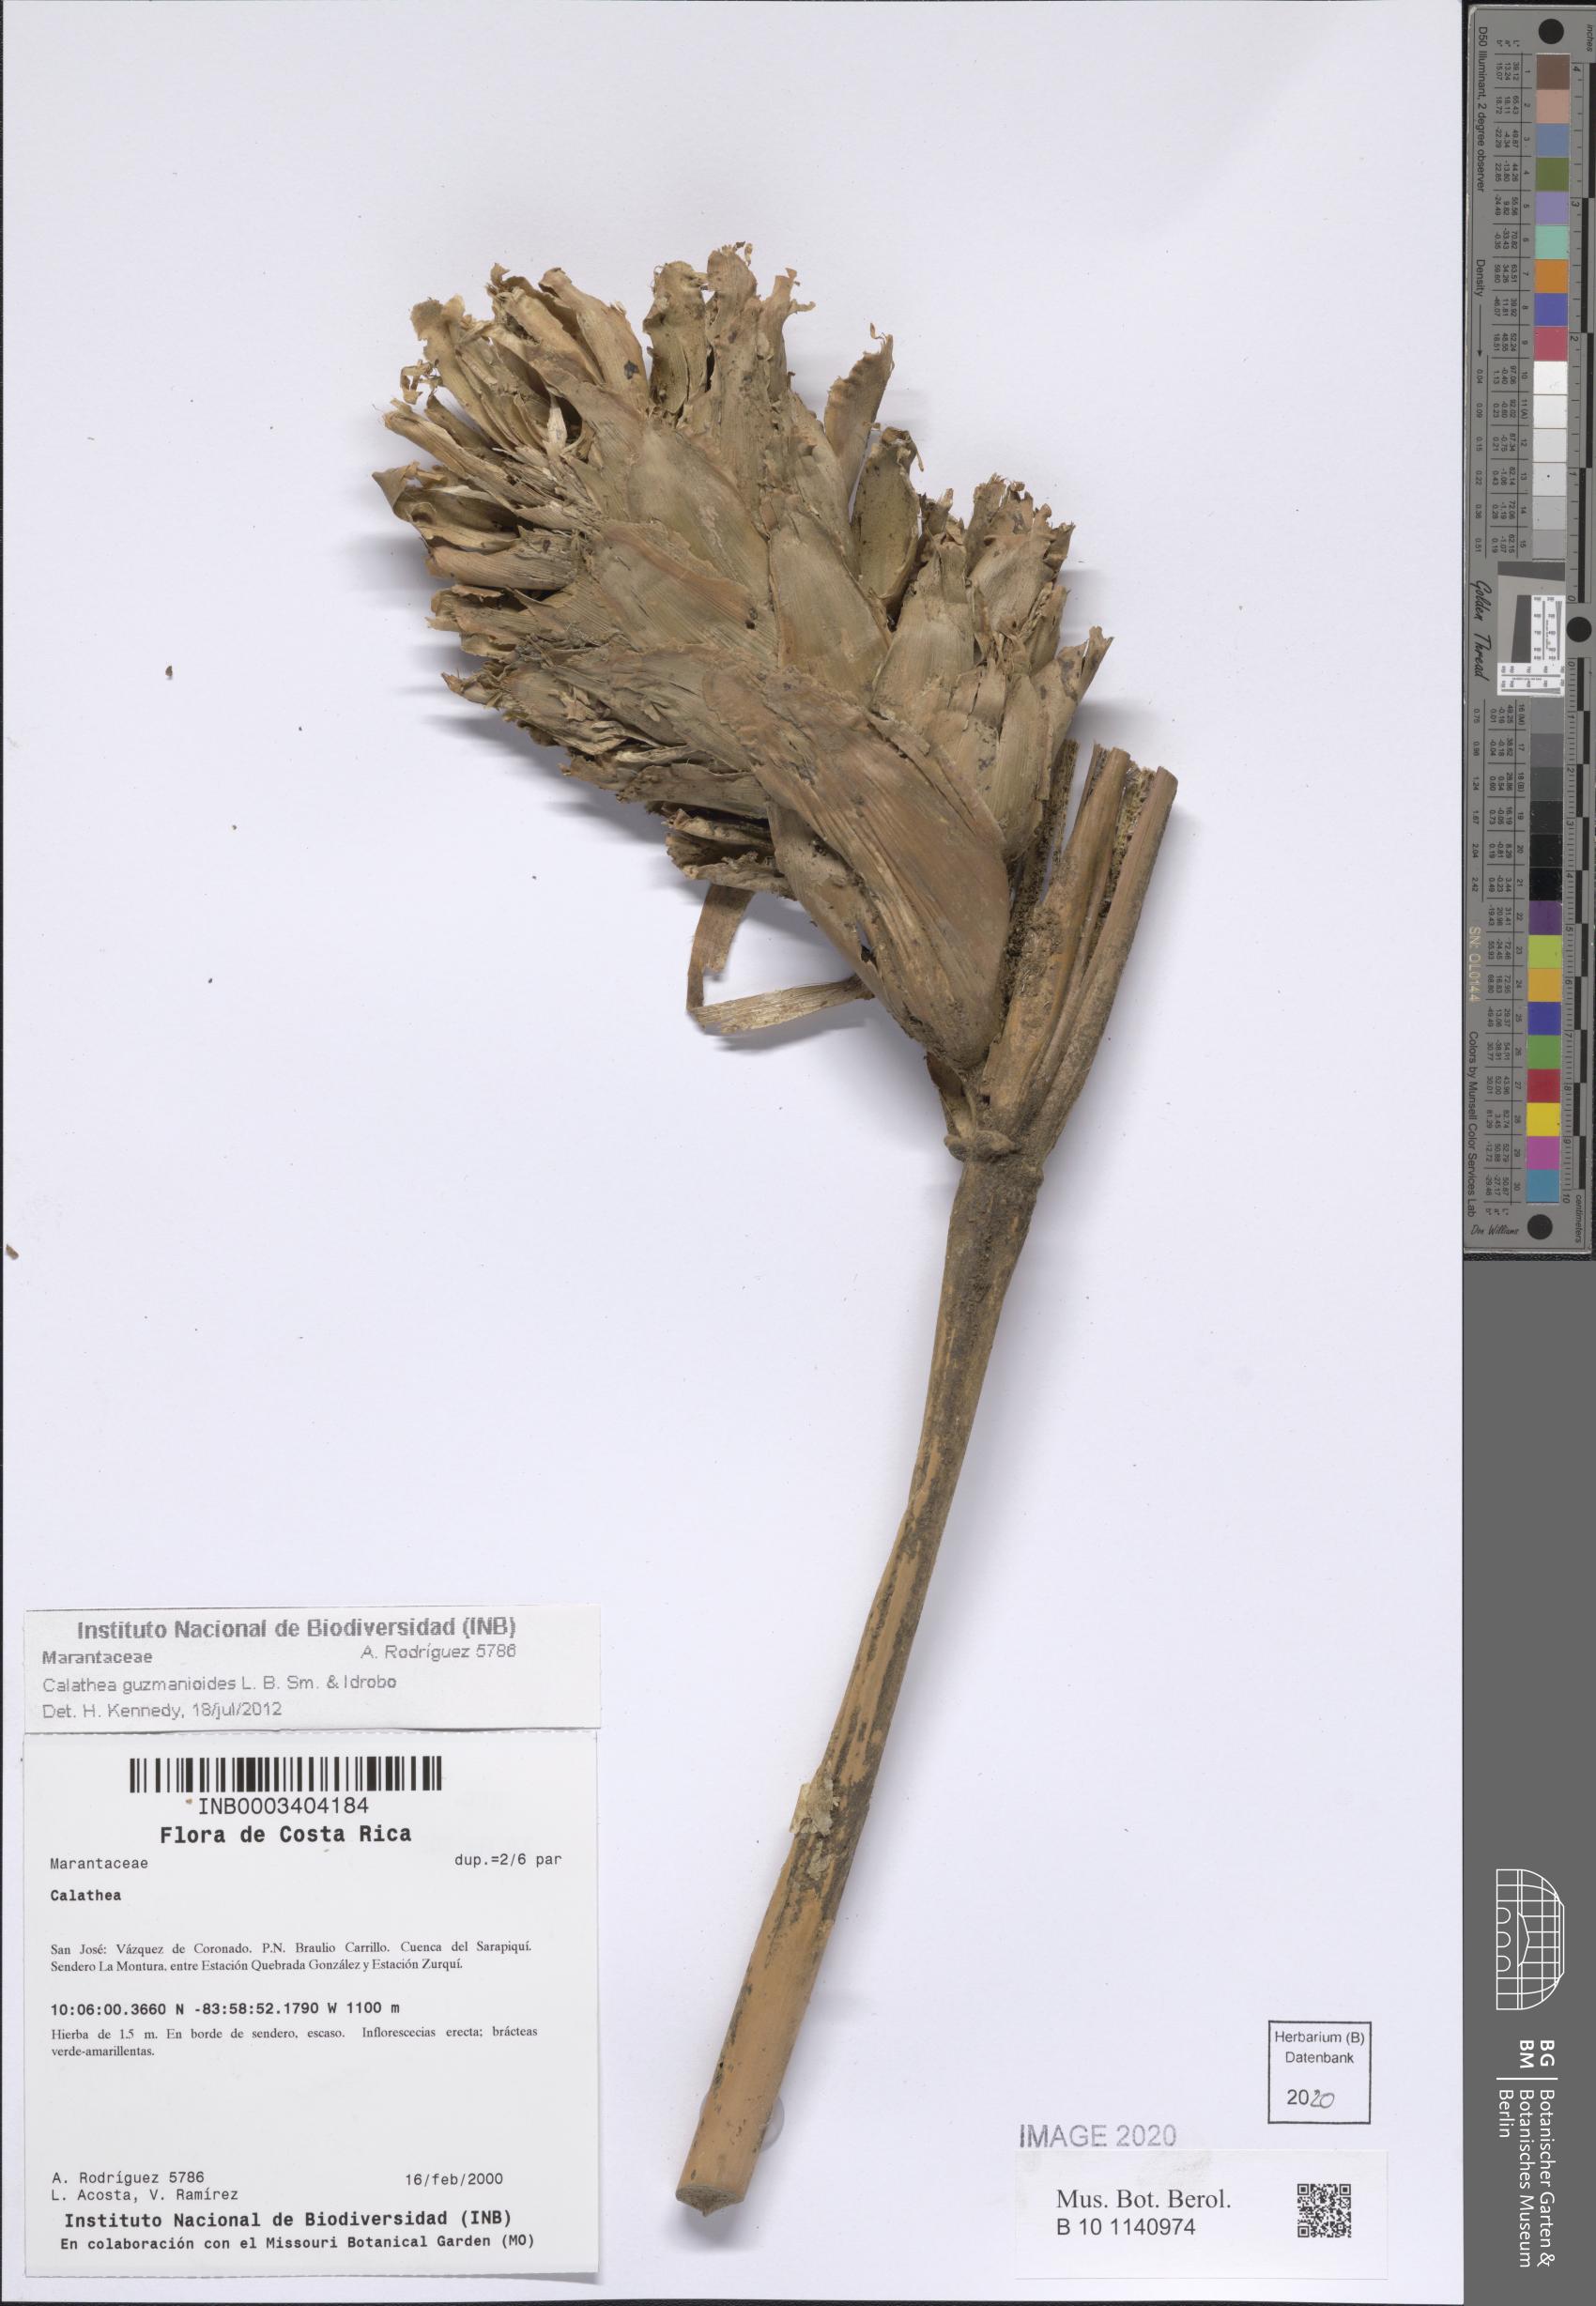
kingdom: Plantae
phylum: Tracheophyta
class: Liliopsida
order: Zingiberales
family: Marantaceae
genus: Calathea
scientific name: Calathea guzmanioides
